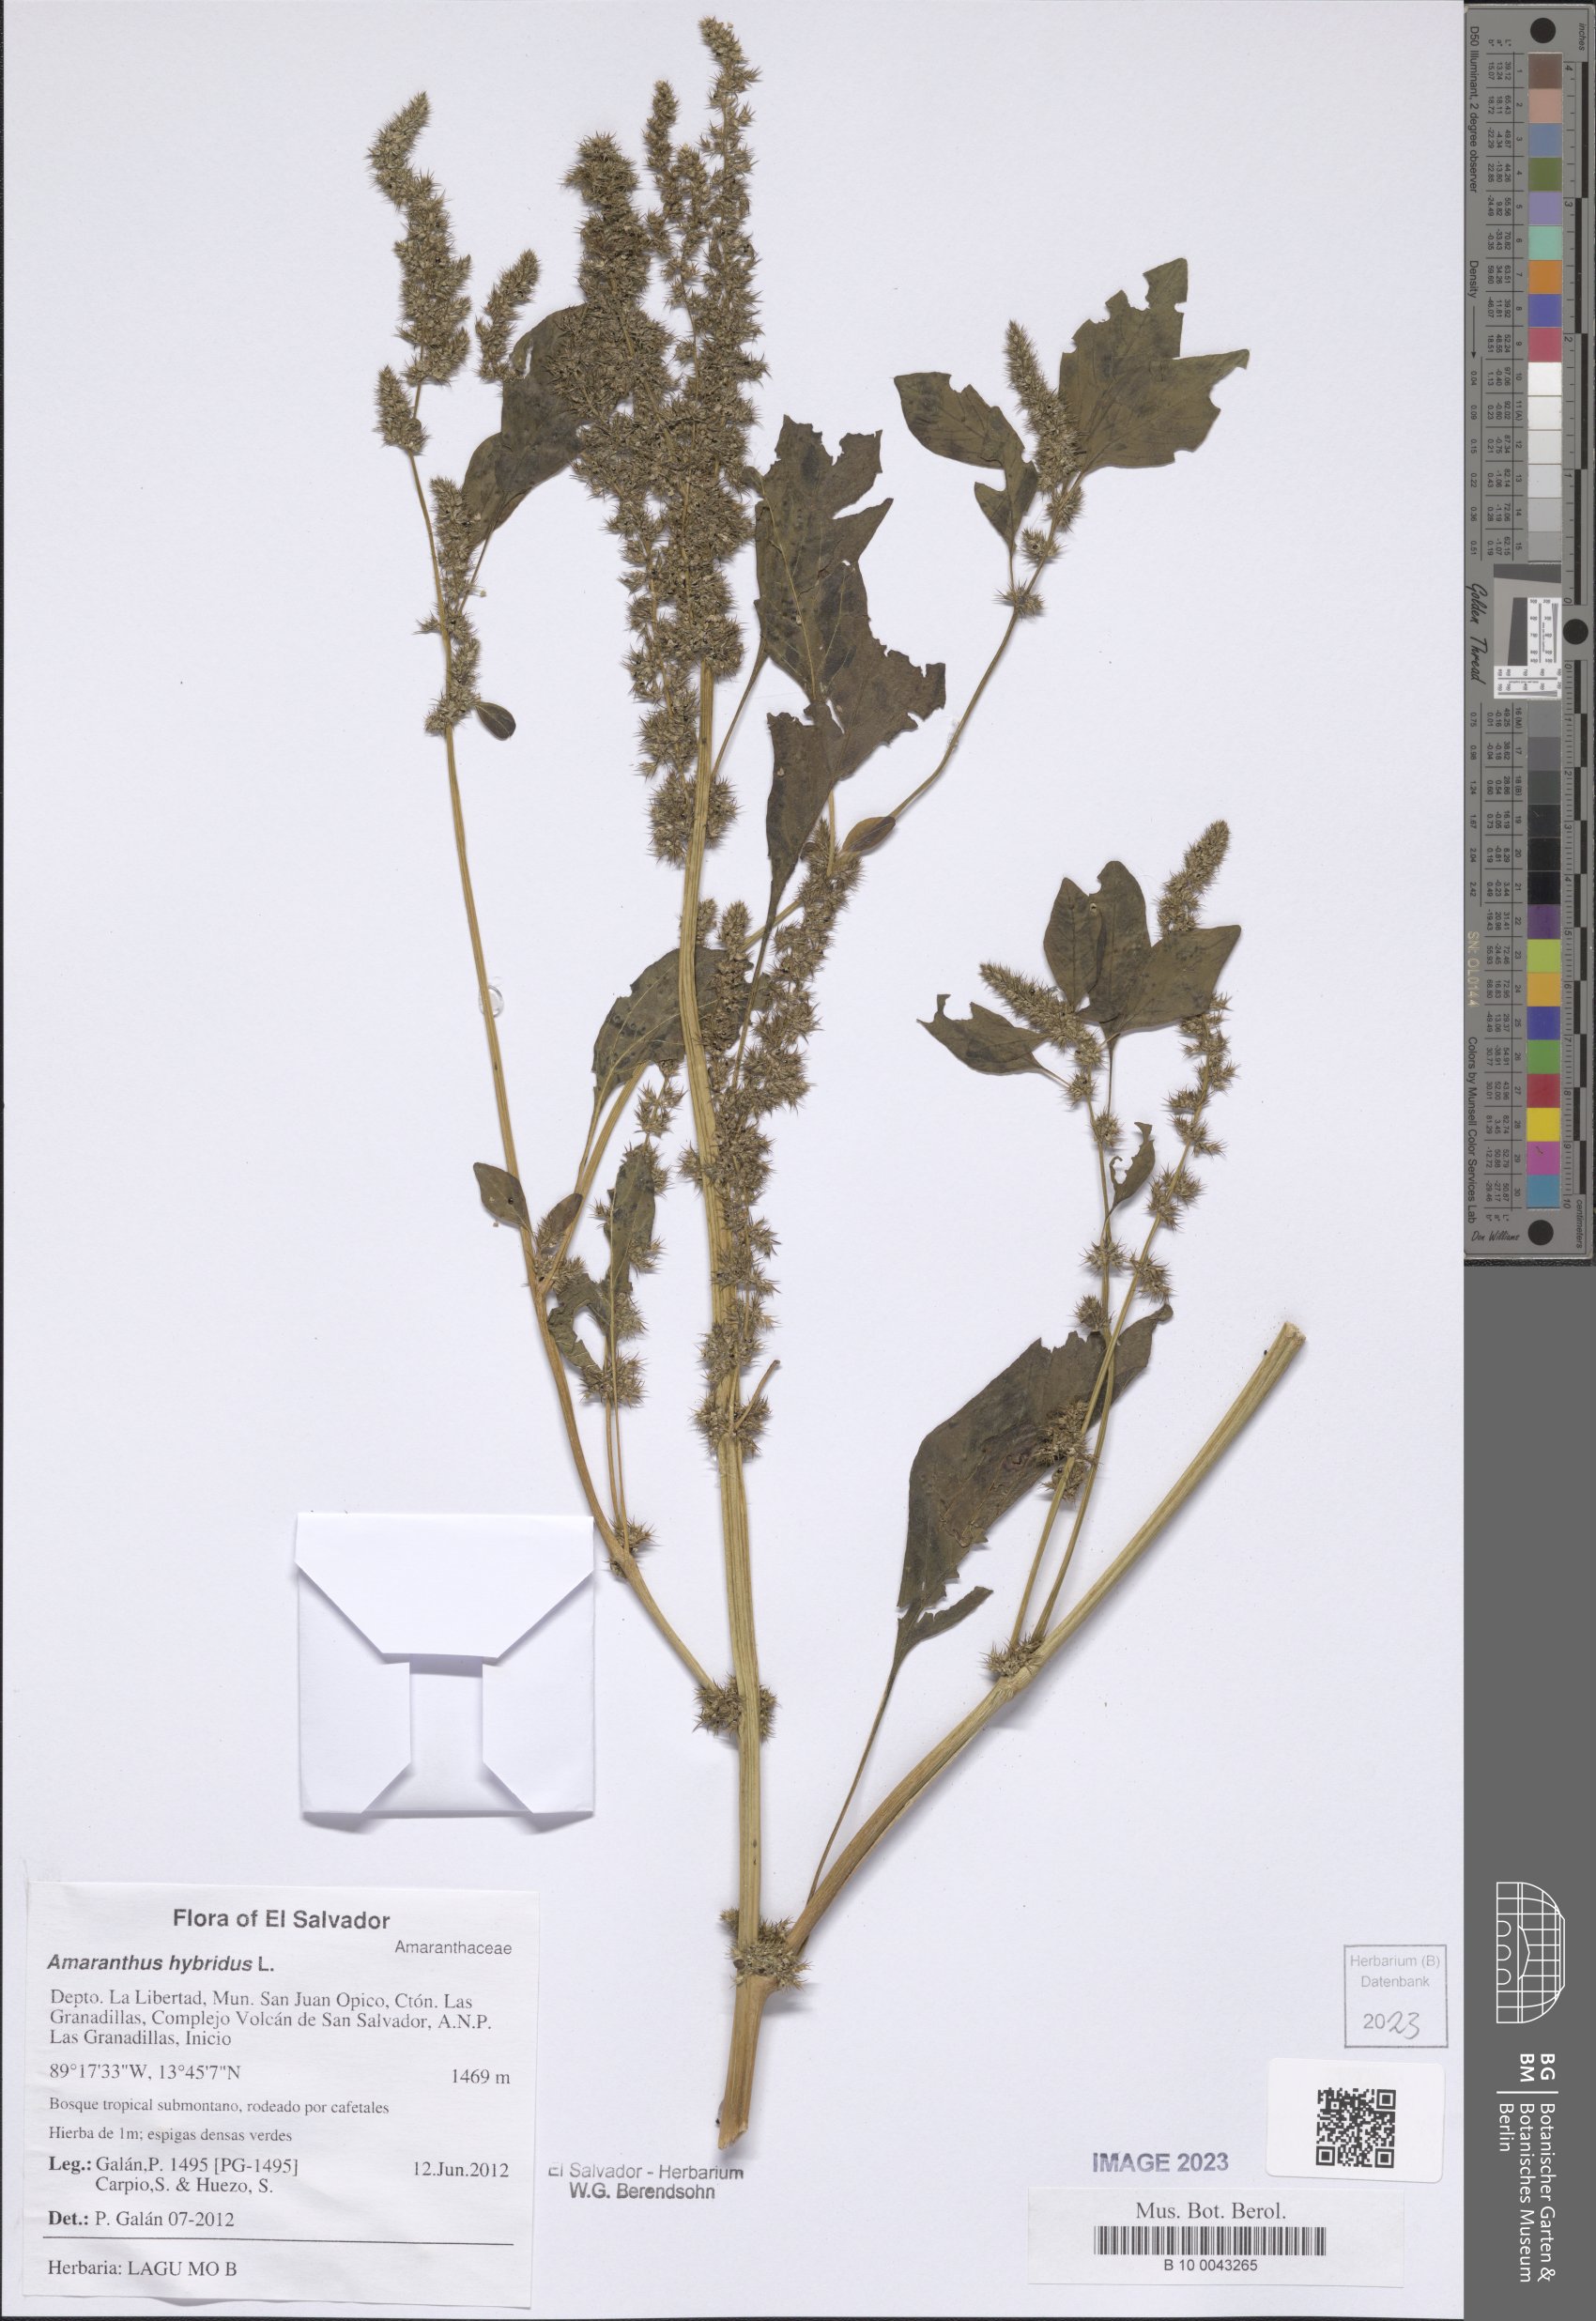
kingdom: Plantae
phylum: Tracheophyta
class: Magnoliopsida
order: Caryophyllales
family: Amaranthaceae
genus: Amaranthus
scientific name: Amaranthus hybridus
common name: Green amaranth
